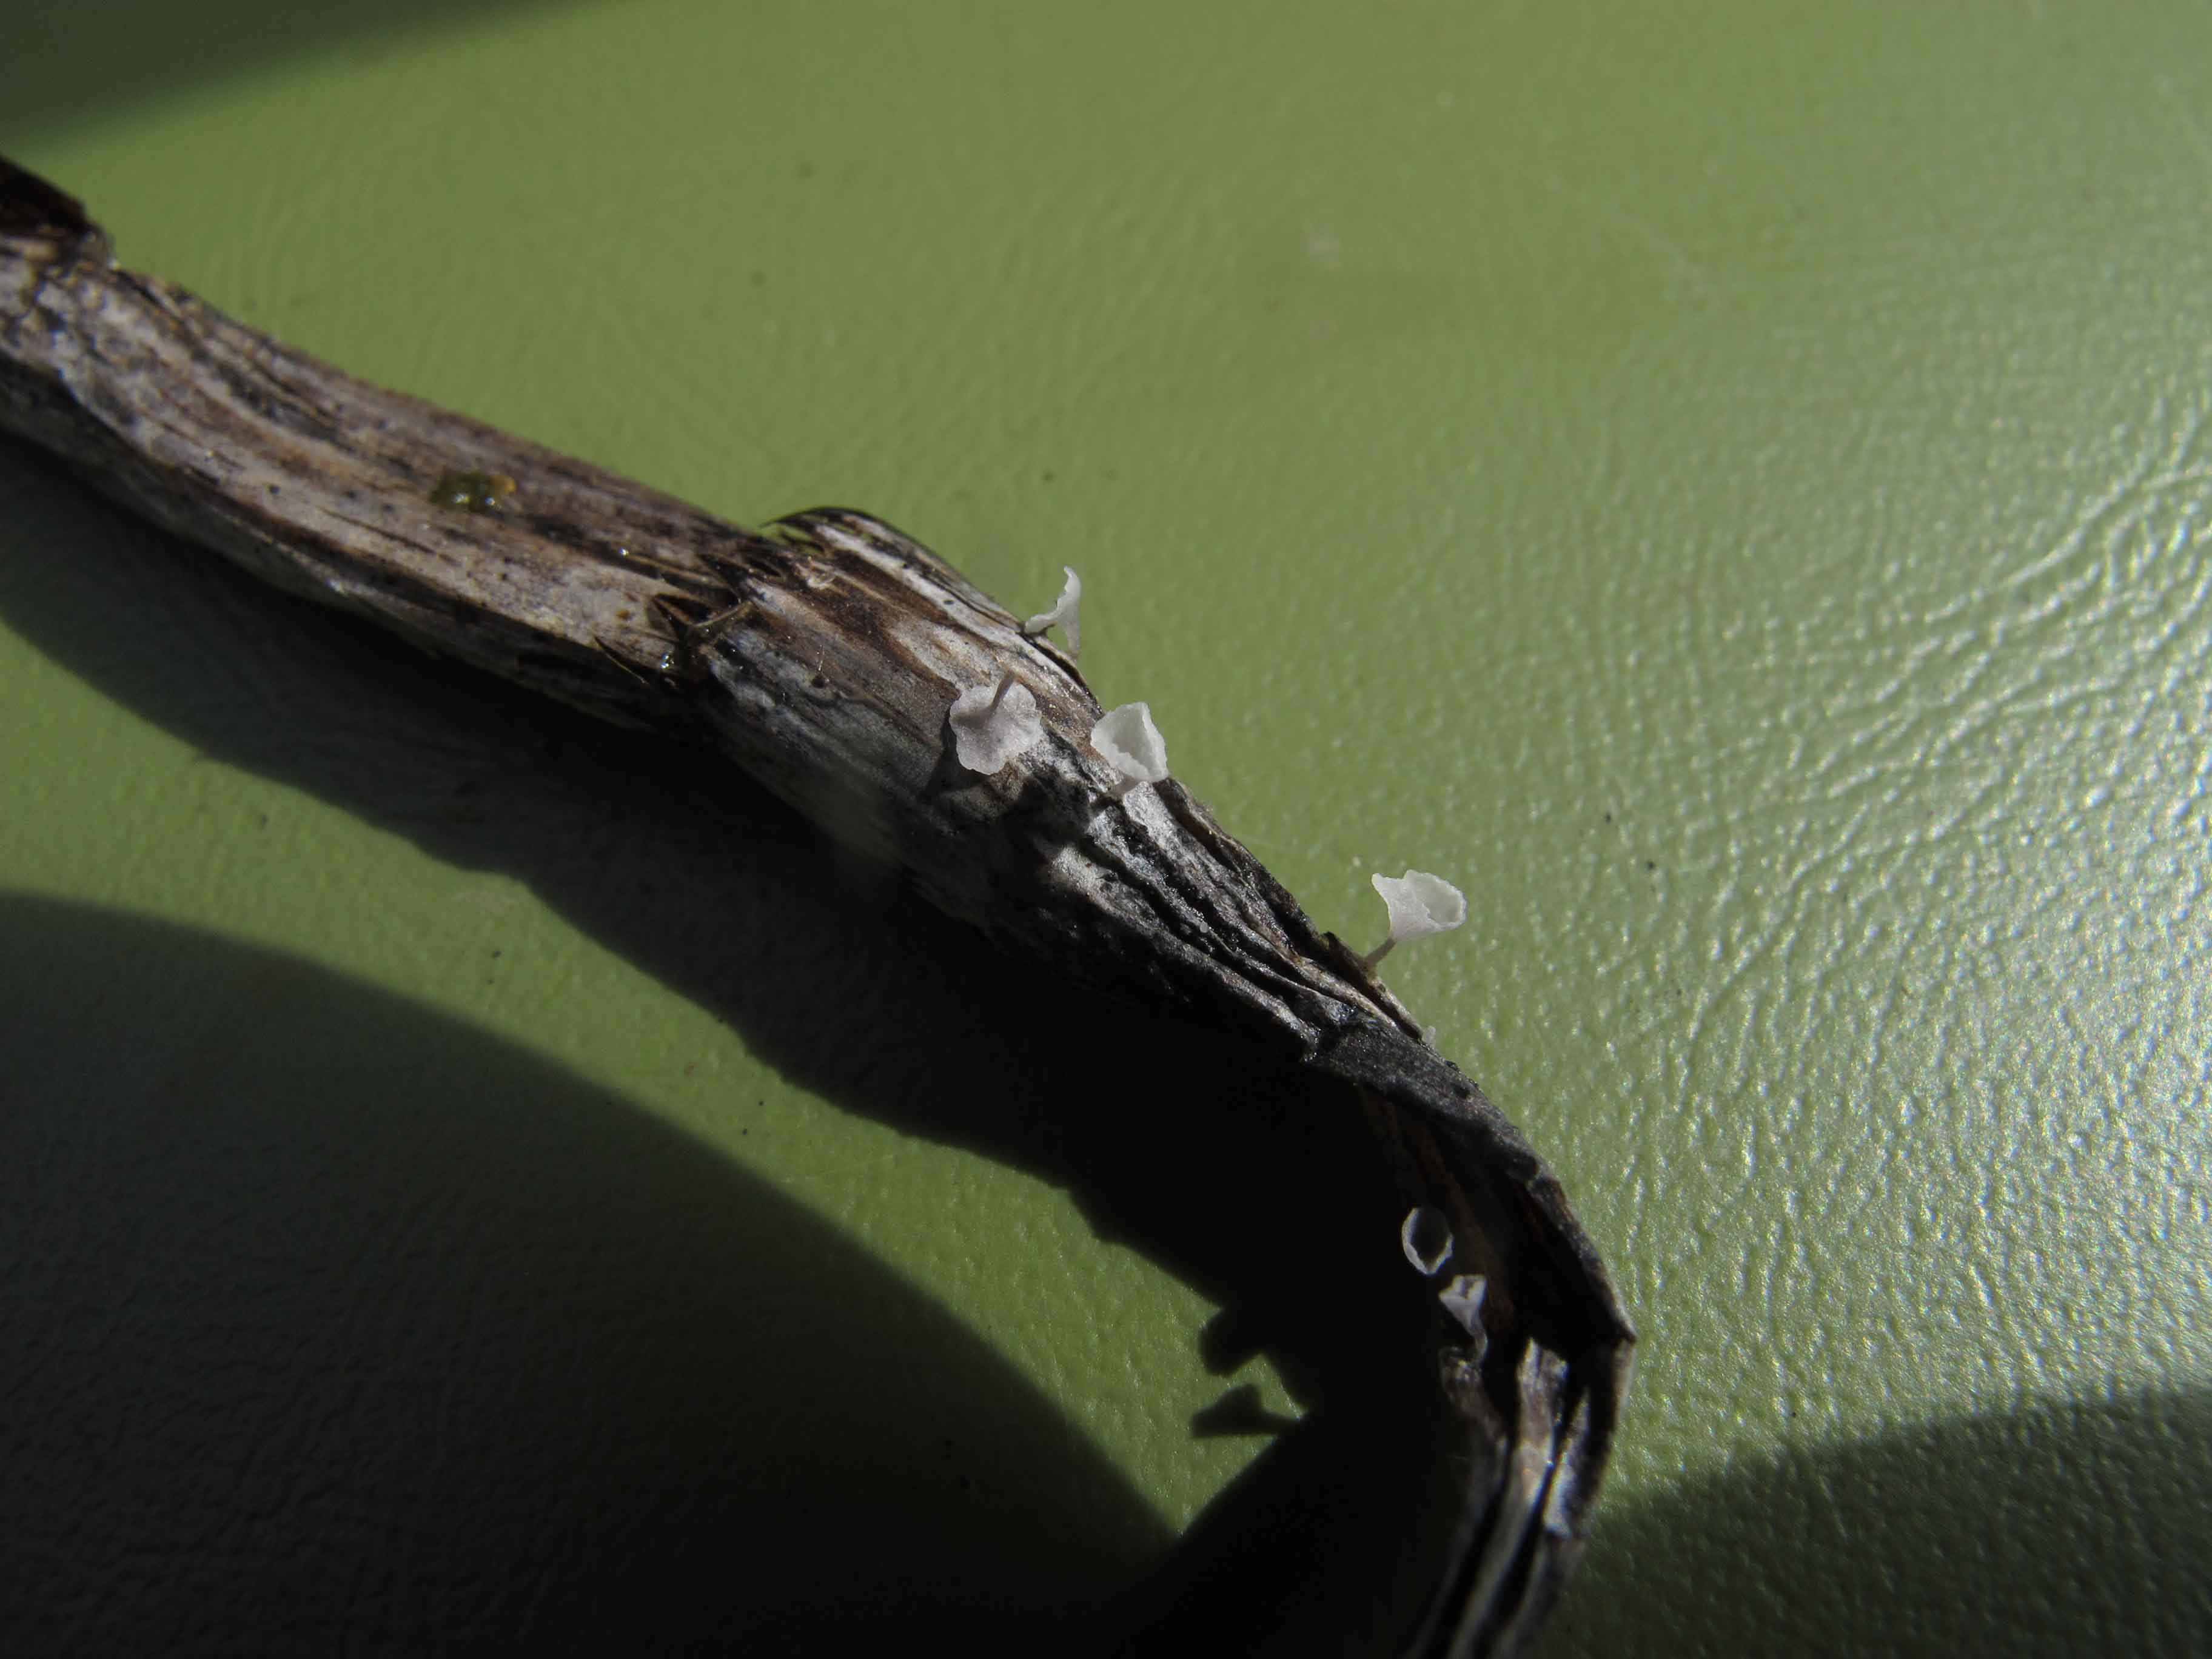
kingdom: Fungi
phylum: Basidiomycota
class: Agaricomycetes
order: Agaricales
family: Marasmiaceae
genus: Calyptella
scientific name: Calyptella gibbosa
